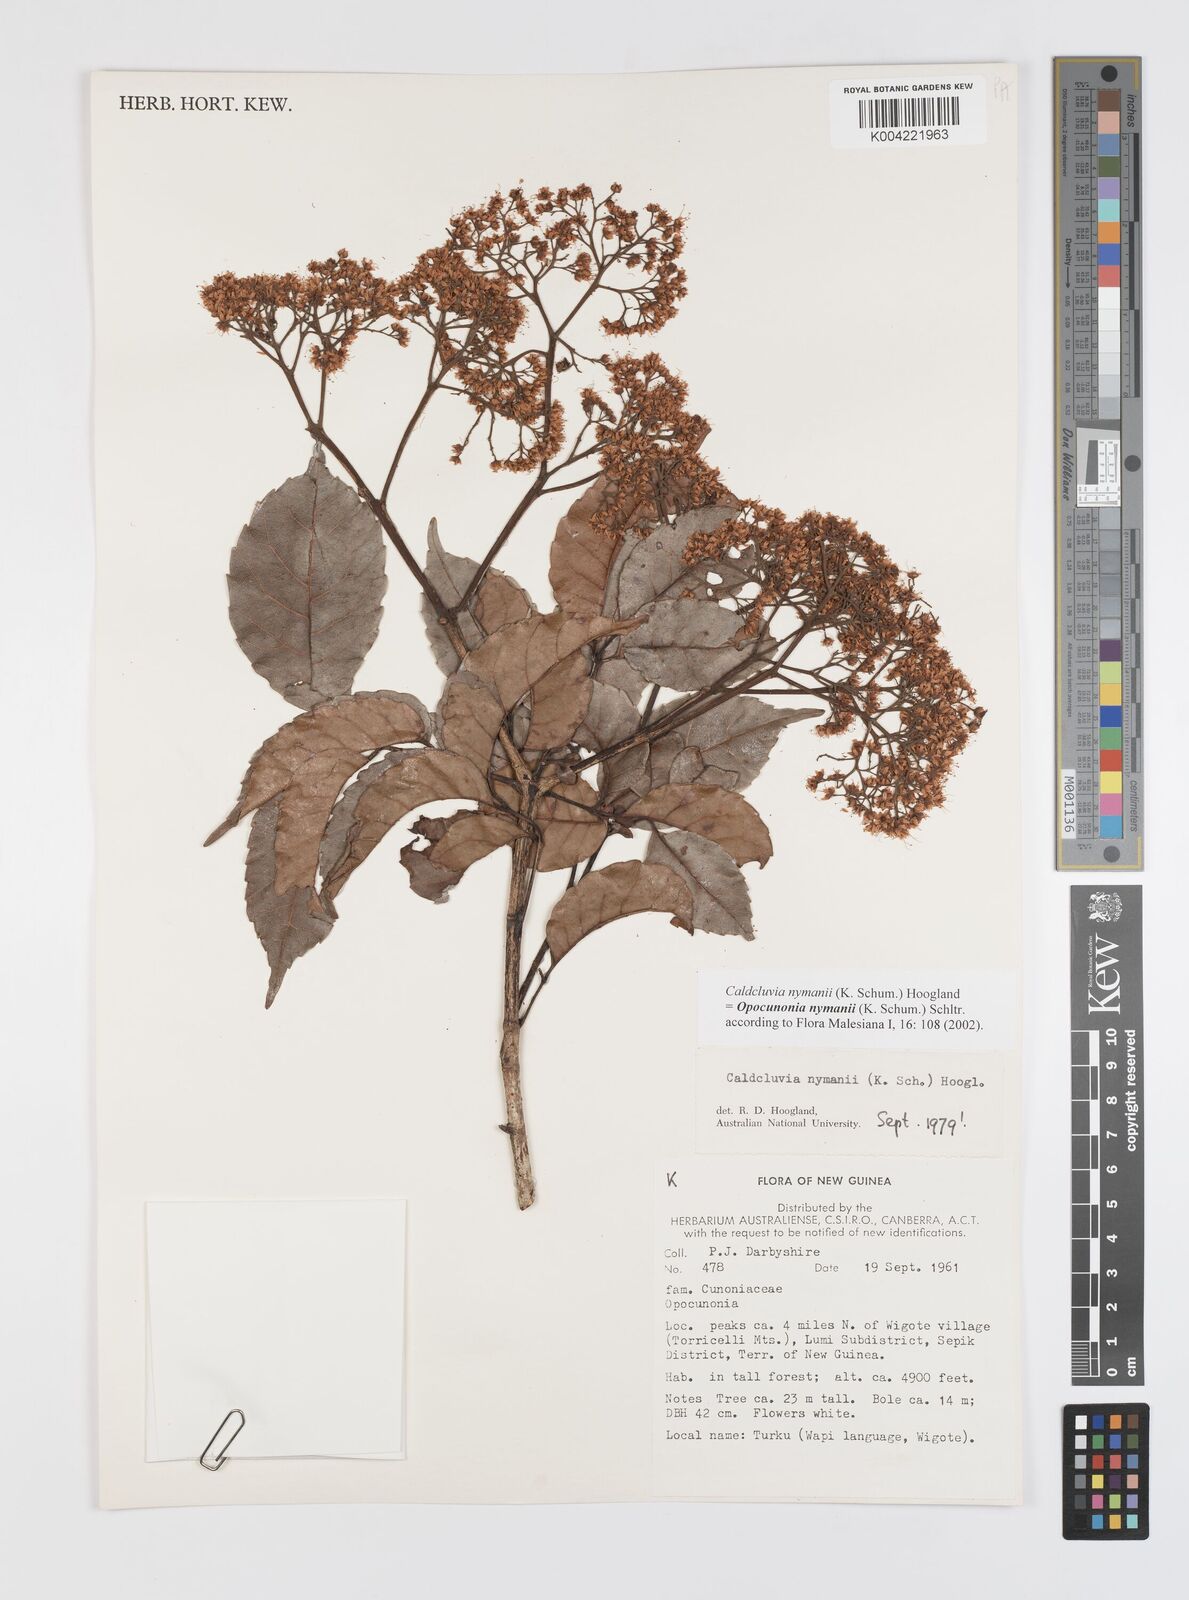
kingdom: Plantae
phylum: Tracheophyta
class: Magnoliopsida
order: Oxalidales
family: Cunoniaceae
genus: Opocunonia
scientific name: Opocunonia nymanii
